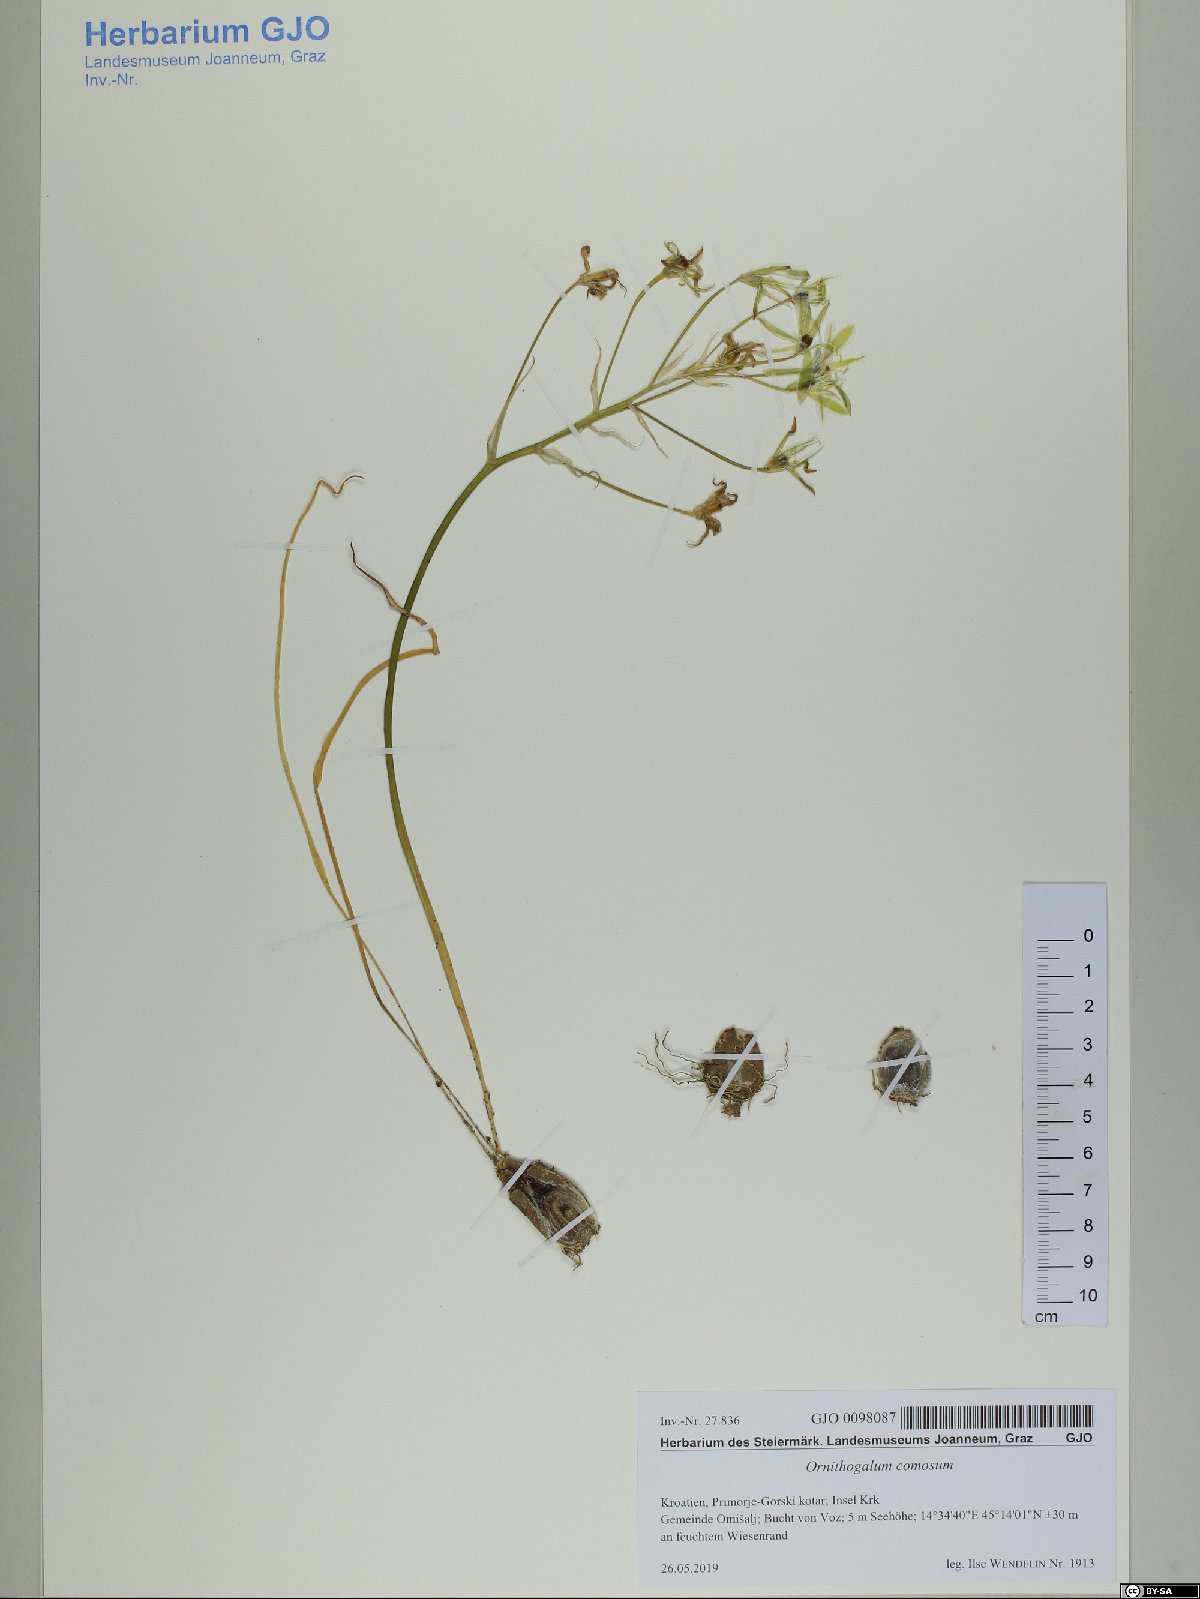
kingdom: Plantae
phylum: Tracheophyta
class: Liliopsida
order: Asparagales
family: Asparagaceae
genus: Ornithogalum
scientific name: Ornithogalum comosum
